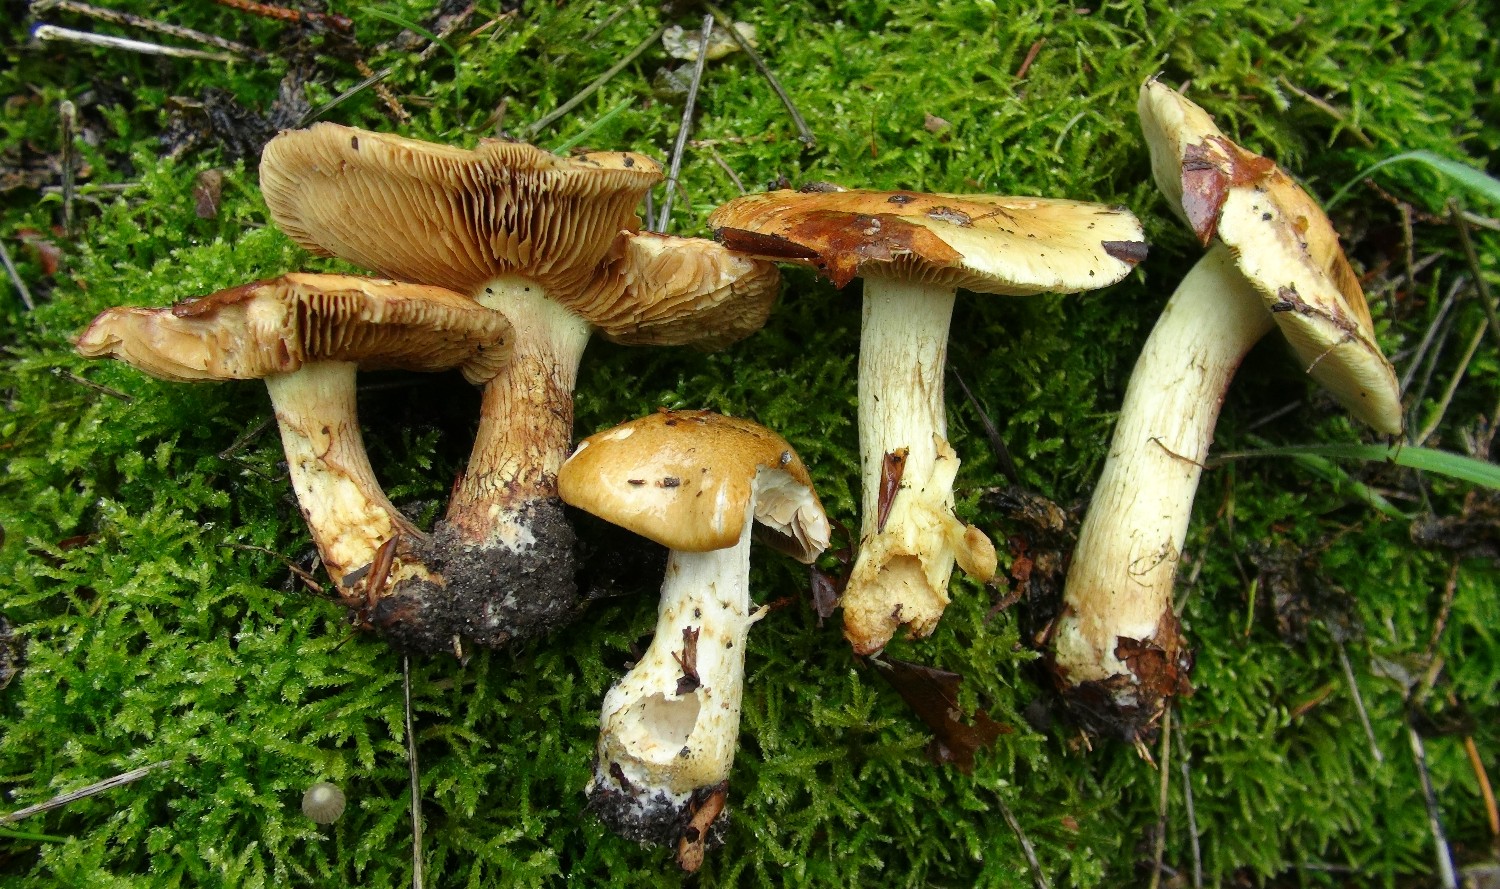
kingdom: Fungi
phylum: Basidiomycota
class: Agaricomycetes
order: Agaricales
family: Cortinariaceae
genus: Cortinarius
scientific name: Cortinarius nanceiensis
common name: banan-slørhat
